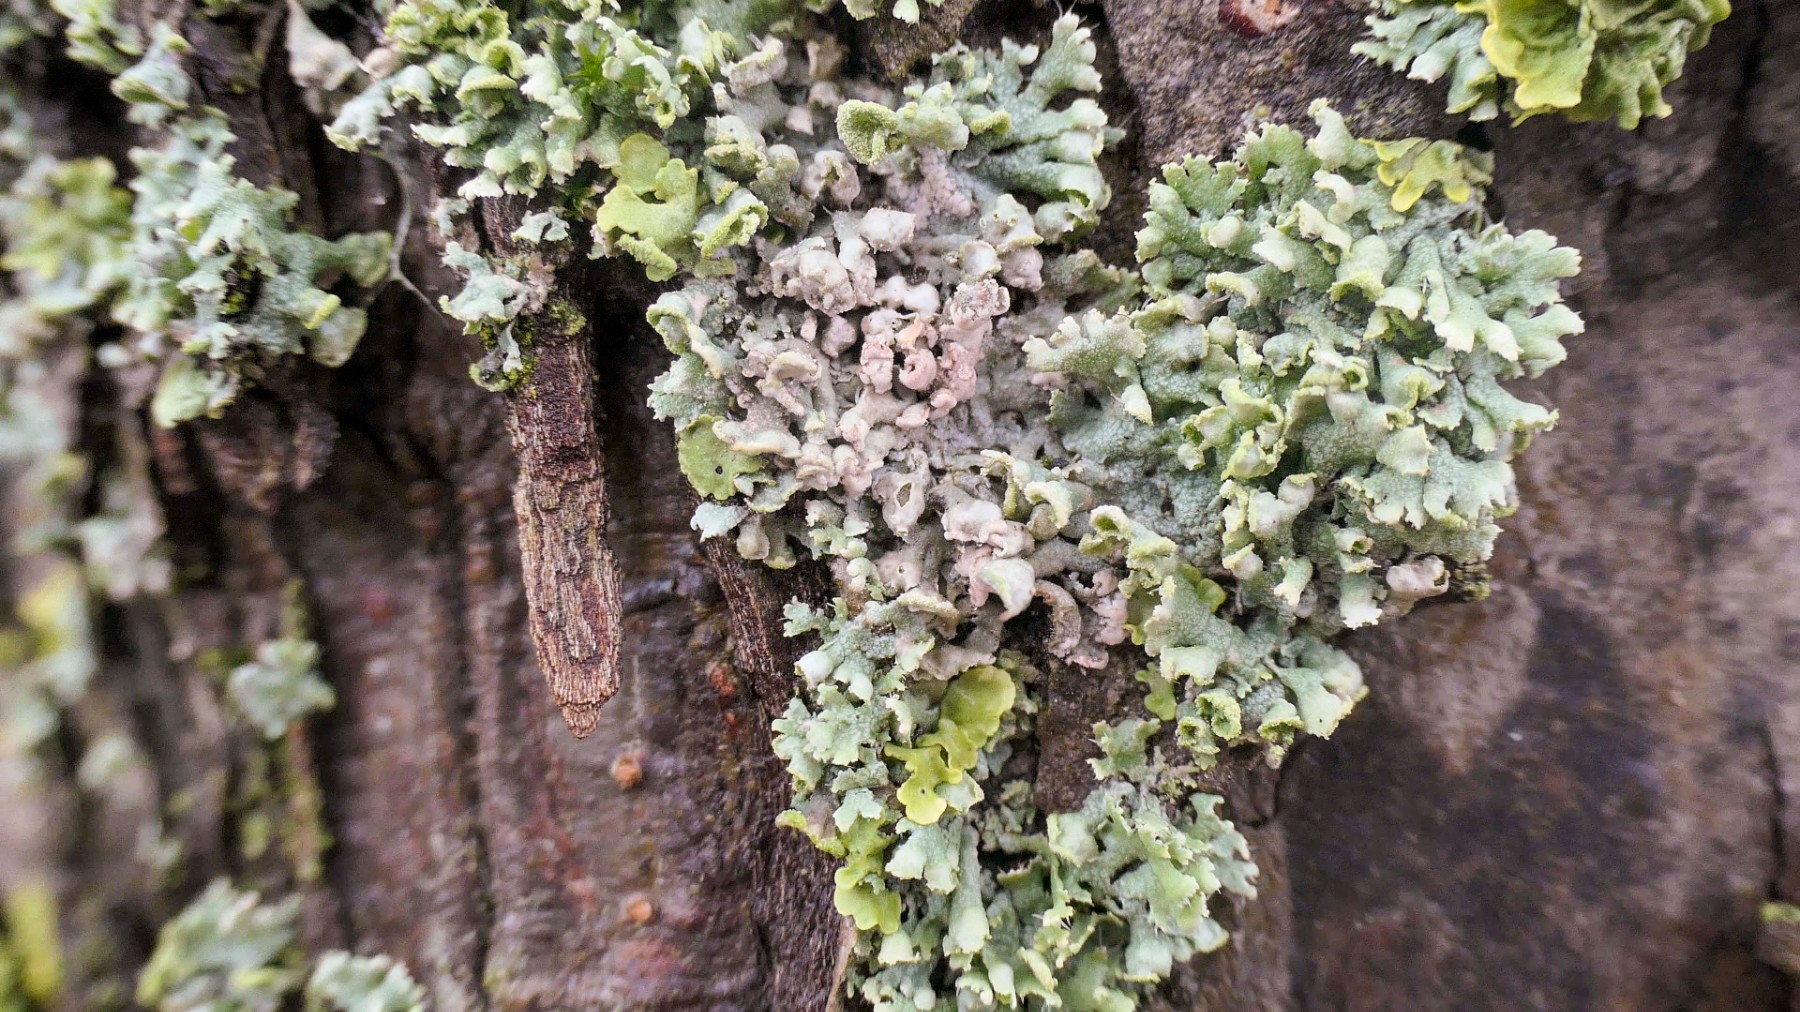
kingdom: Fungi
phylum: Basidiomycota
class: Agaricomycetes
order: Corticiales
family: Corticiaceae
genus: Erythricium
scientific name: Erythricium aurantiacum
